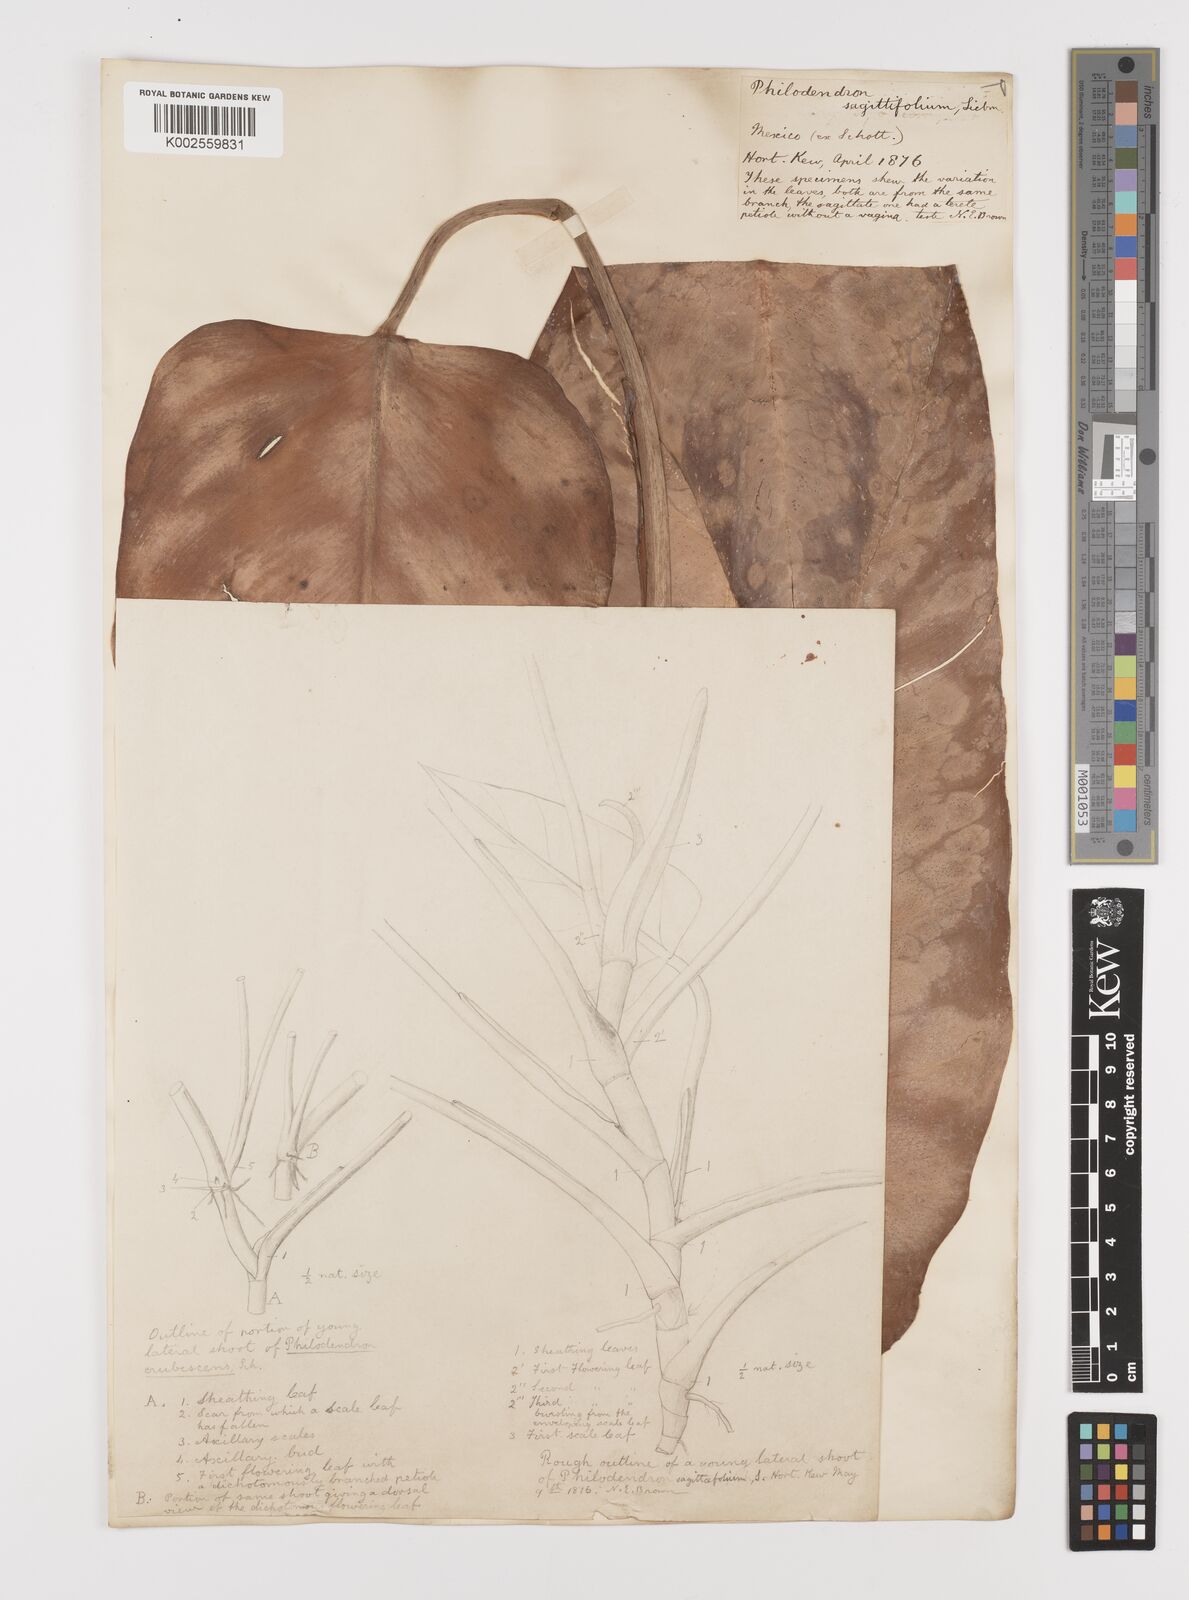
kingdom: Plantae
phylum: Tracheophyta
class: Liliopsida
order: Alismatales
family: Araceae
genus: Philodendron
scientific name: Philodendron sagittifolium
